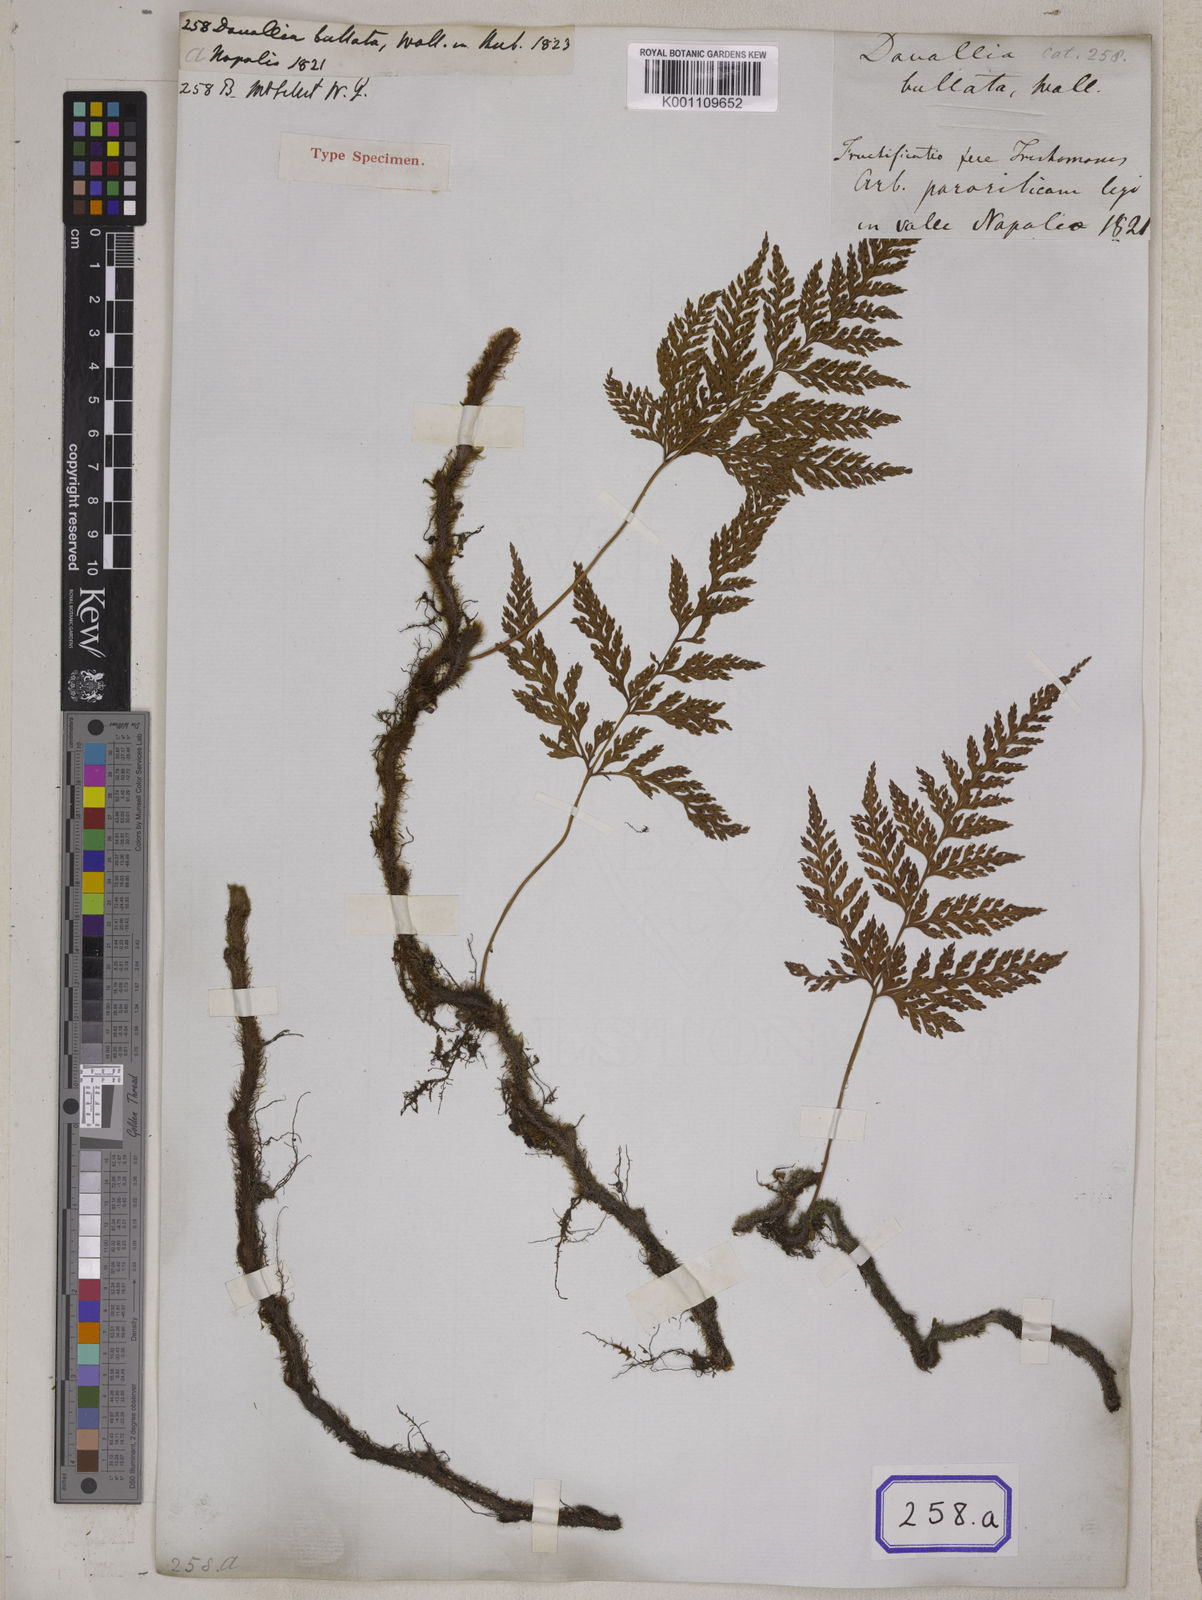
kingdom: Plantae
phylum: Tracheophyta
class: Polypodiopsida
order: Polypodiales
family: Davalliaceae
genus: Davallia
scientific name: Davallia
